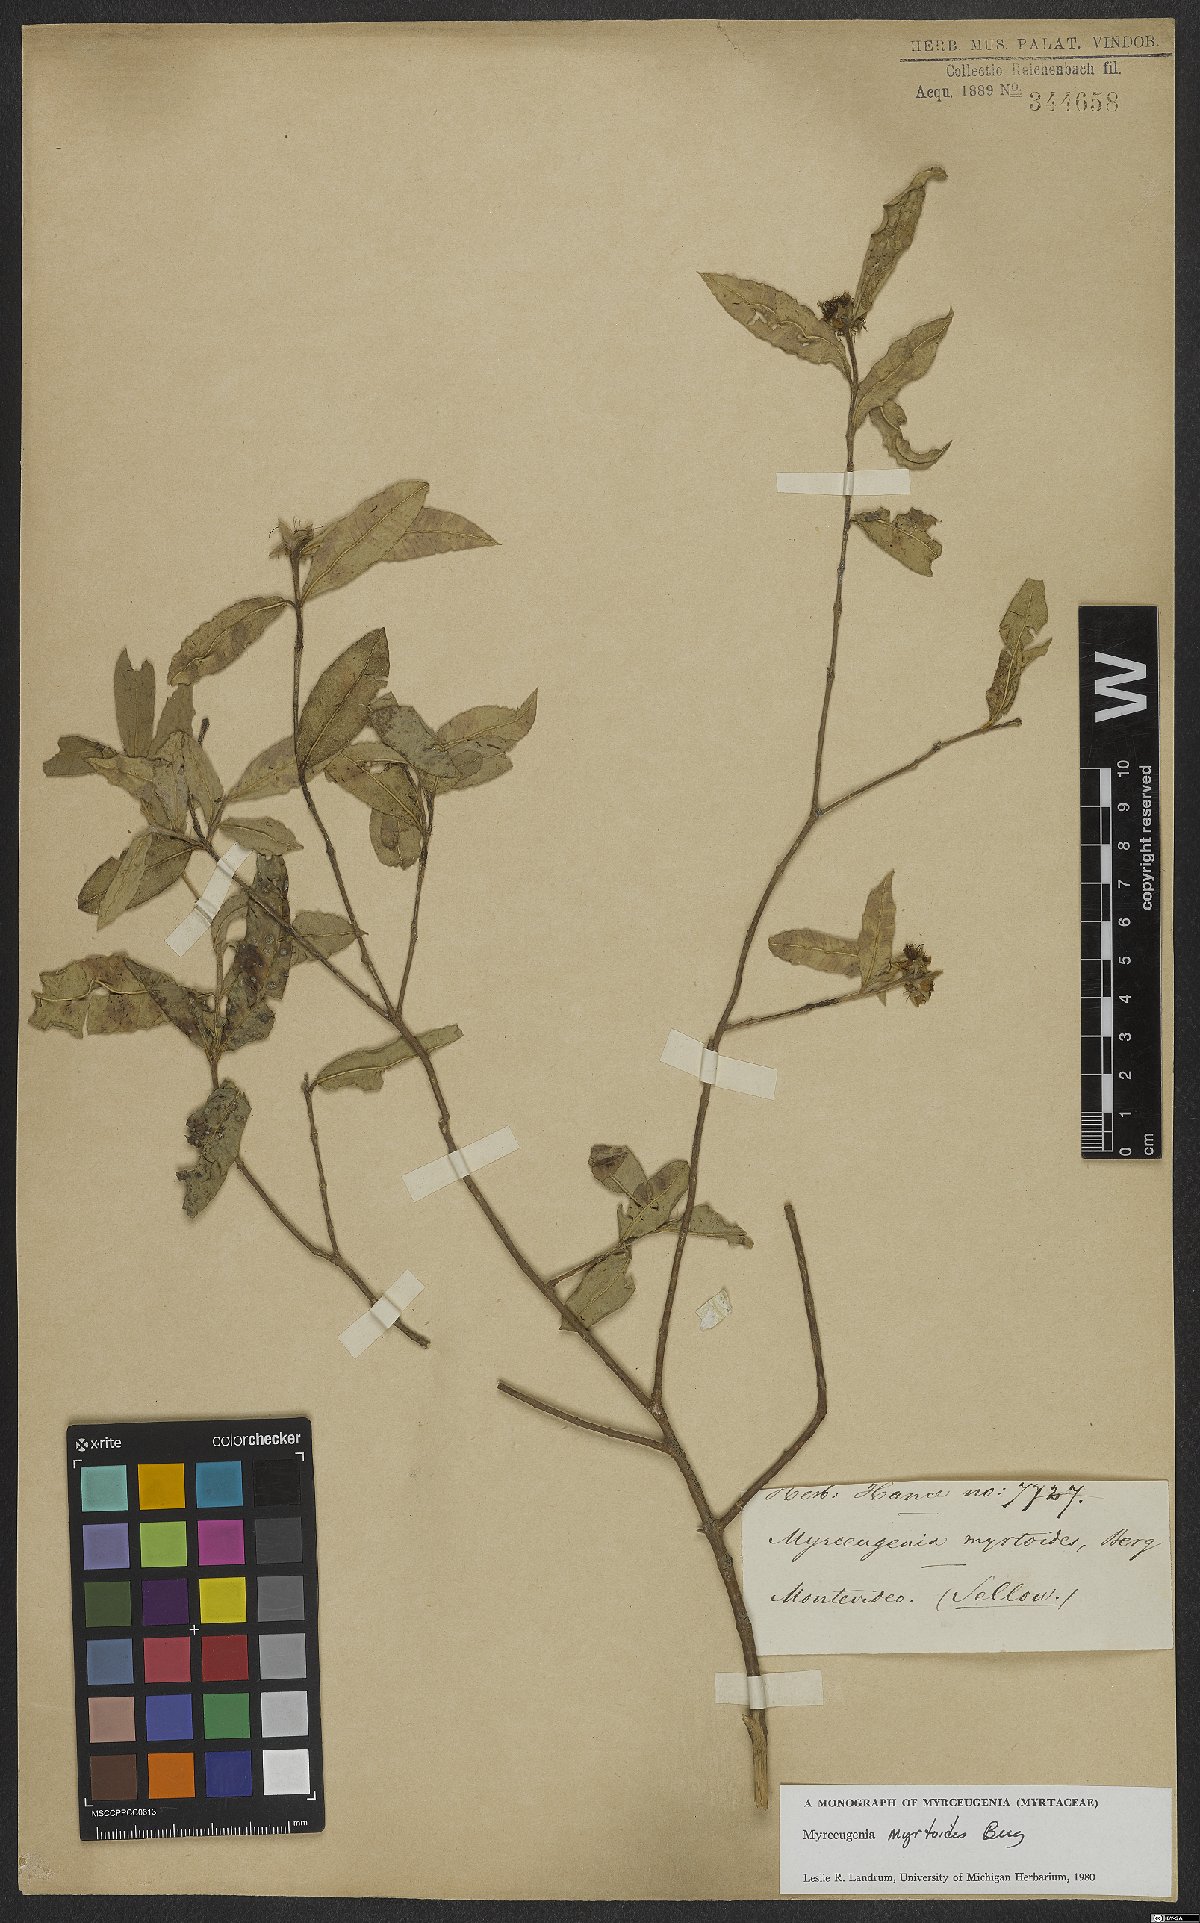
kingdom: Plantae
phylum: Tracheophyta
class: Magnoliopsida
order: Myrtales
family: Myrtaceae
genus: Myrceugenia
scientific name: Myrceugenia myrtoides
